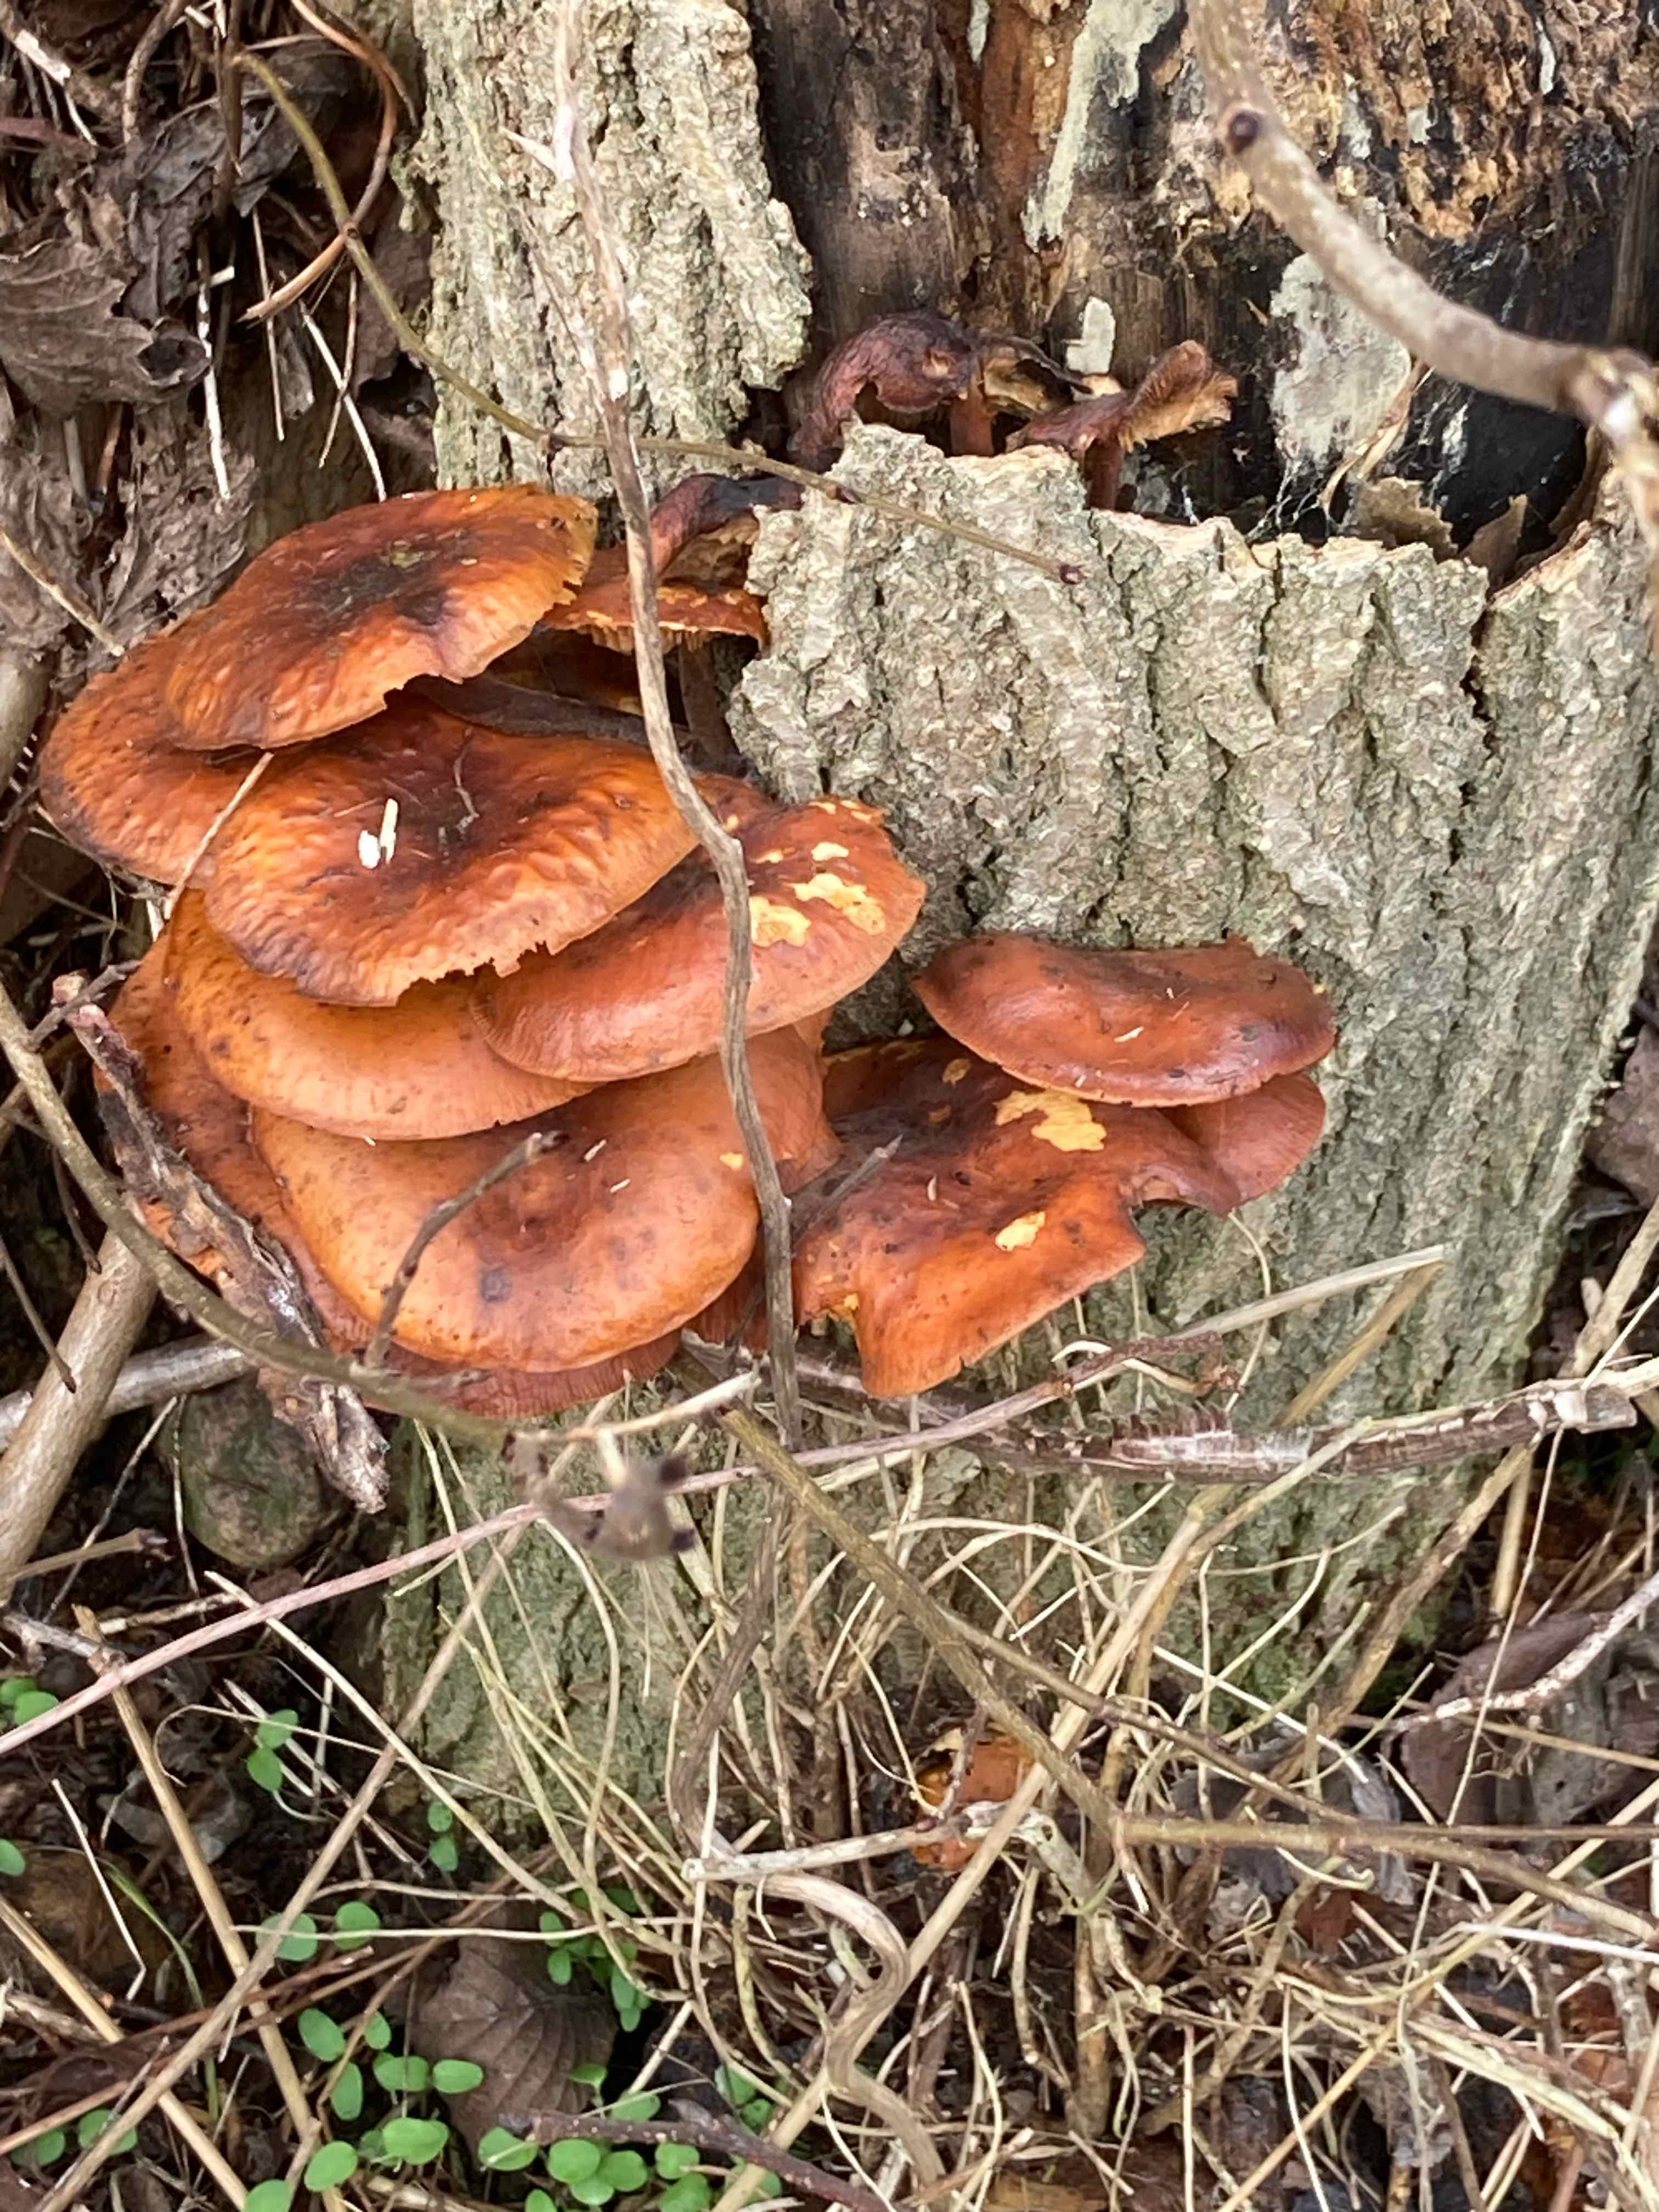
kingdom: Fungi
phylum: Basidiomycota
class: Agaricomycetes
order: Agaricales
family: Physalacriaceae
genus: Flammulina
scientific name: Flammulina
